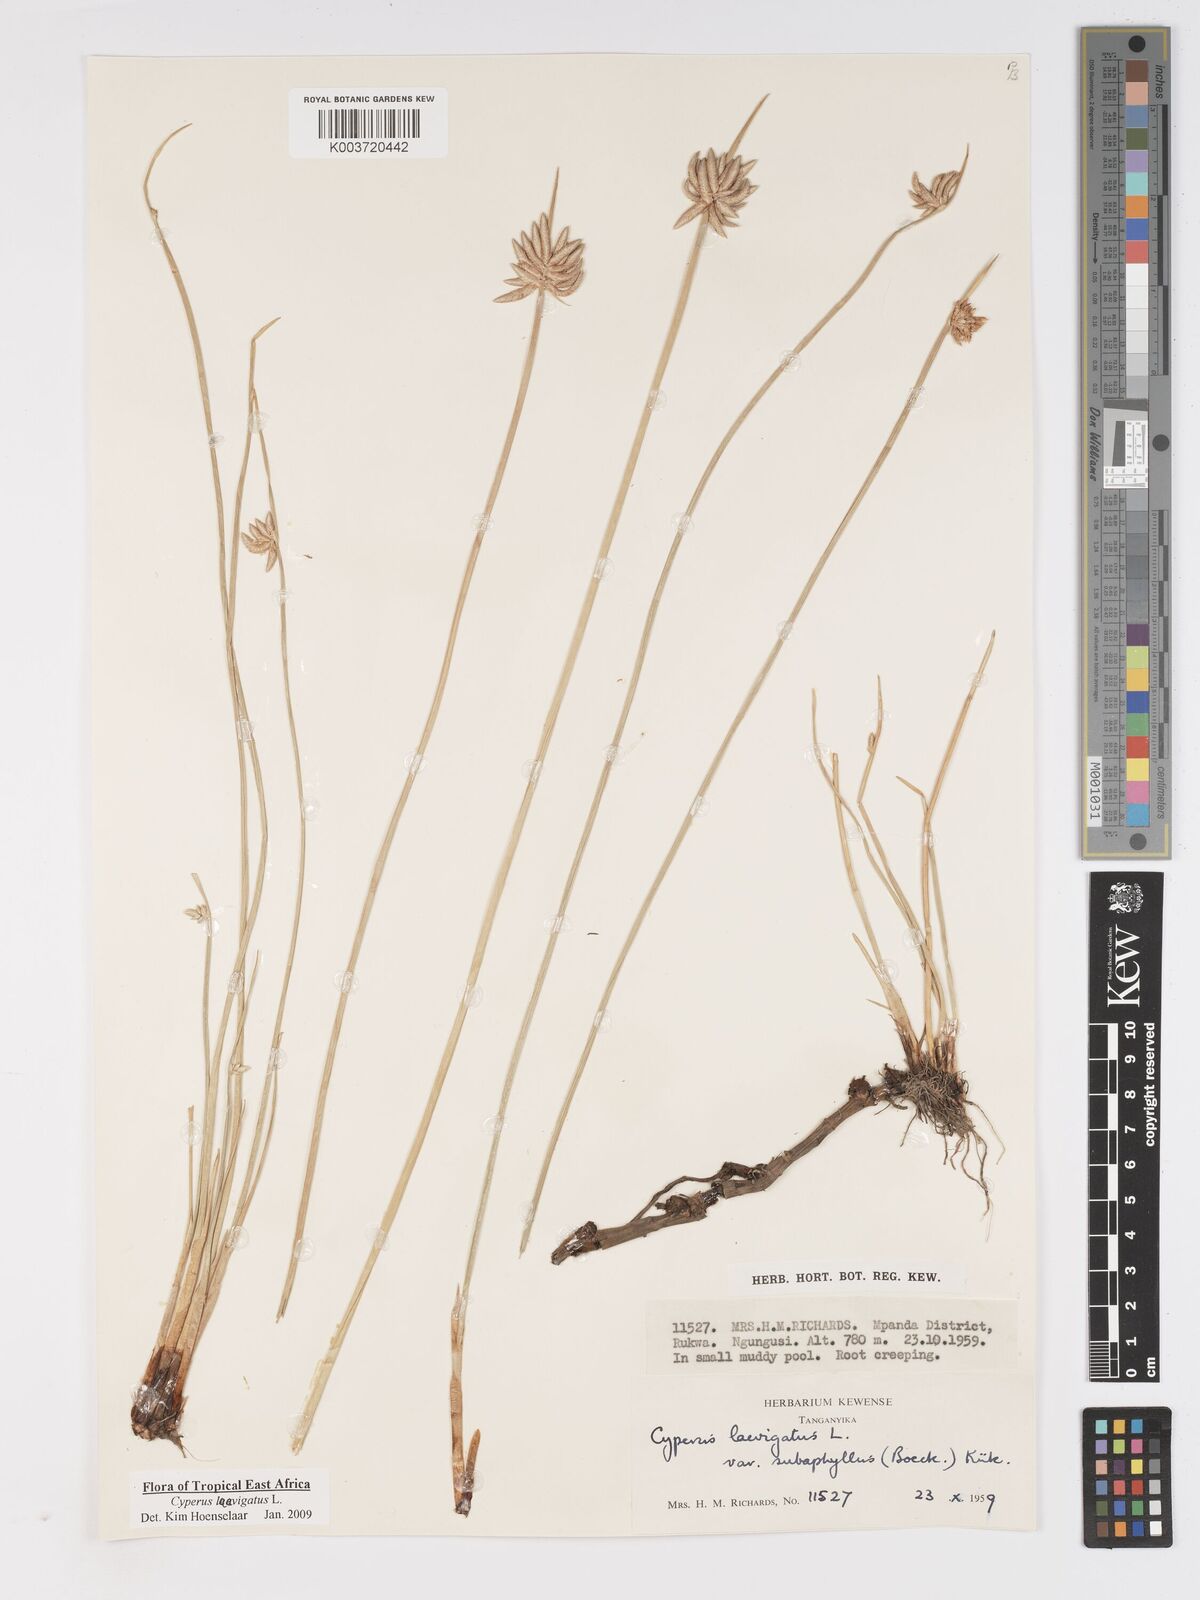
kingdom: Plantae
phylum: Tracheophyta
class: Liliopsida
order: Poales
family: Cyperaceae
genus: Cyperus
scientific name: Cyperus laevigatus
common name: Smooth flat sedge
